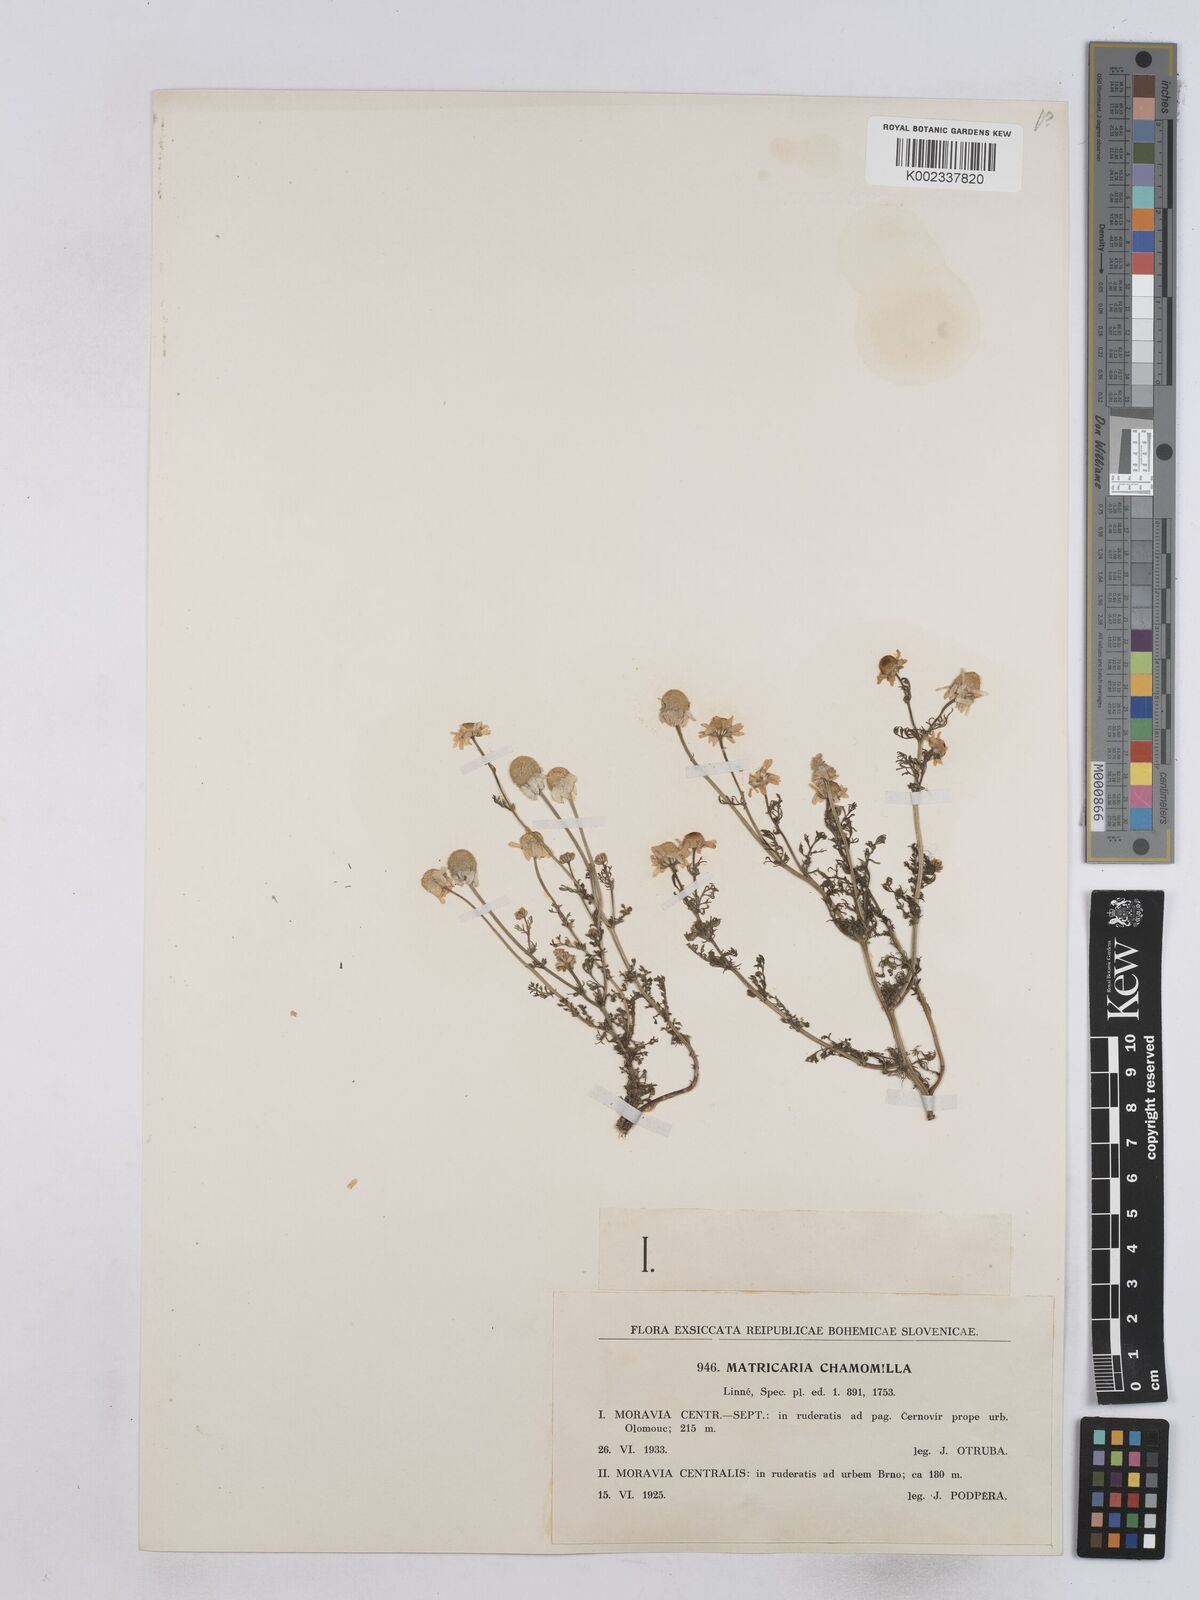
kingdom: Plantae
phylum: Tracheophyta
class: Magnoliopsida
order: Asterales
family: Asteraceae
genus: Matricaria
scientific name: Matricaria chamomilla
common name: Scented mayweed
